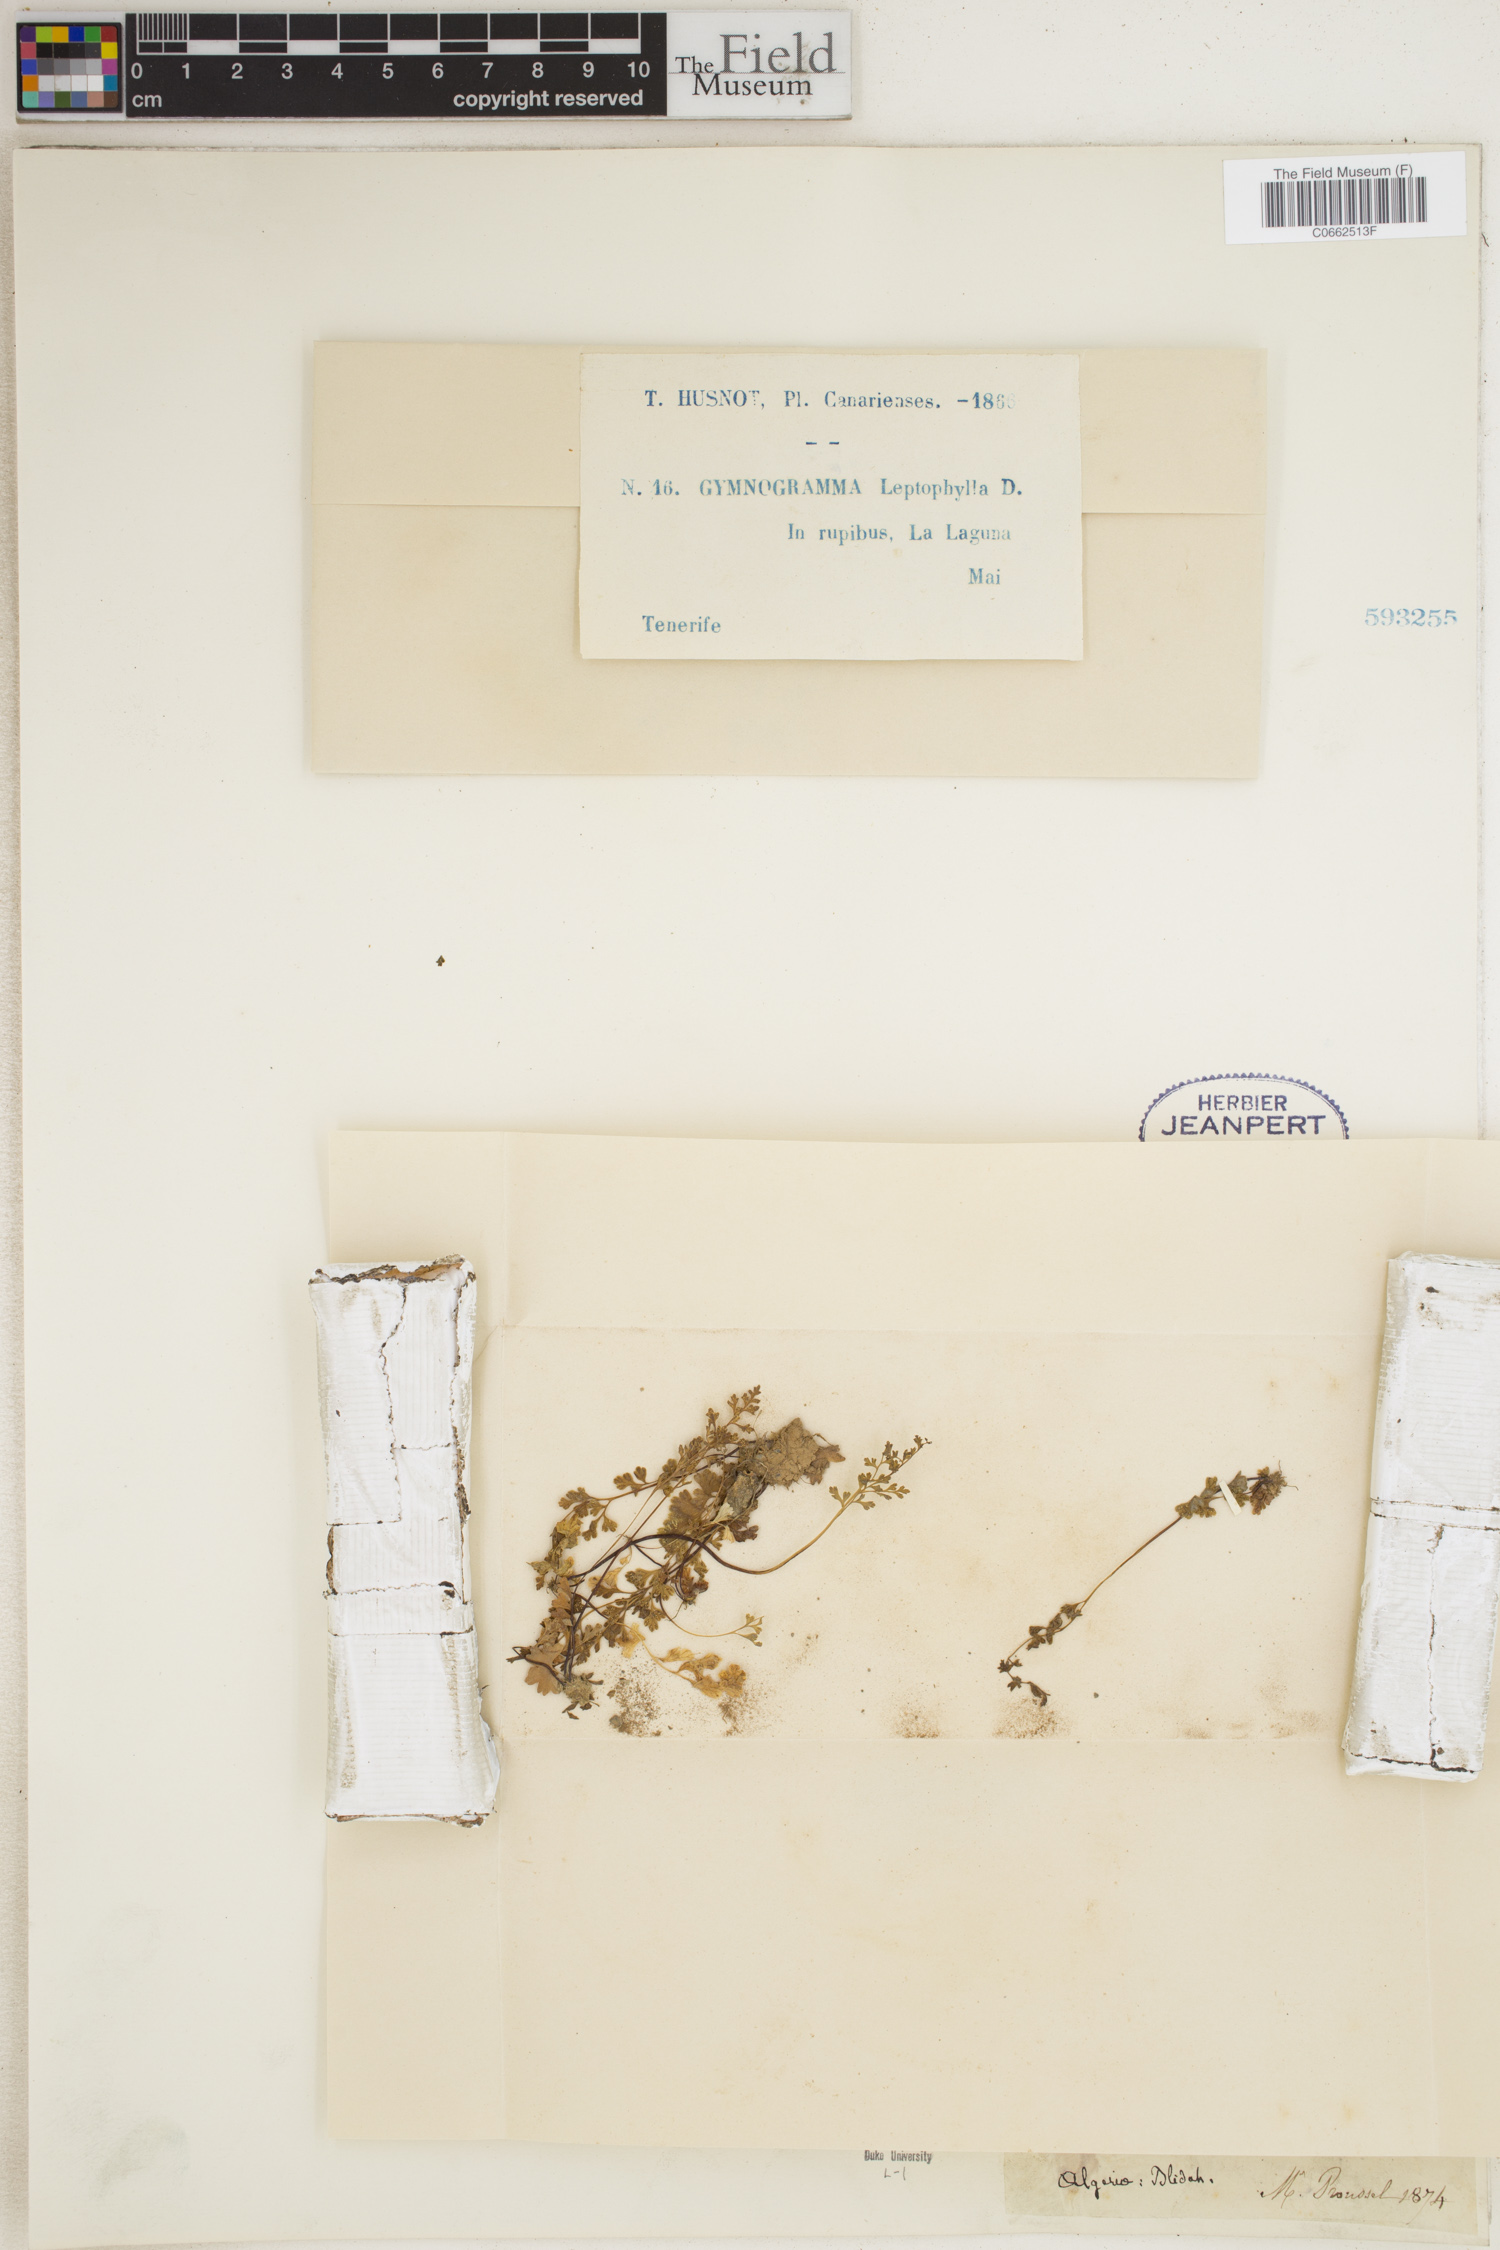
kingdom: Plantae
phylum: Tracheophyta
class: Polypodiopsida
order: Polypodiales
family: Pteridaceae
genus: Anogramma
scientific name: Anogramma leptophylla
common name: Jersey fern
